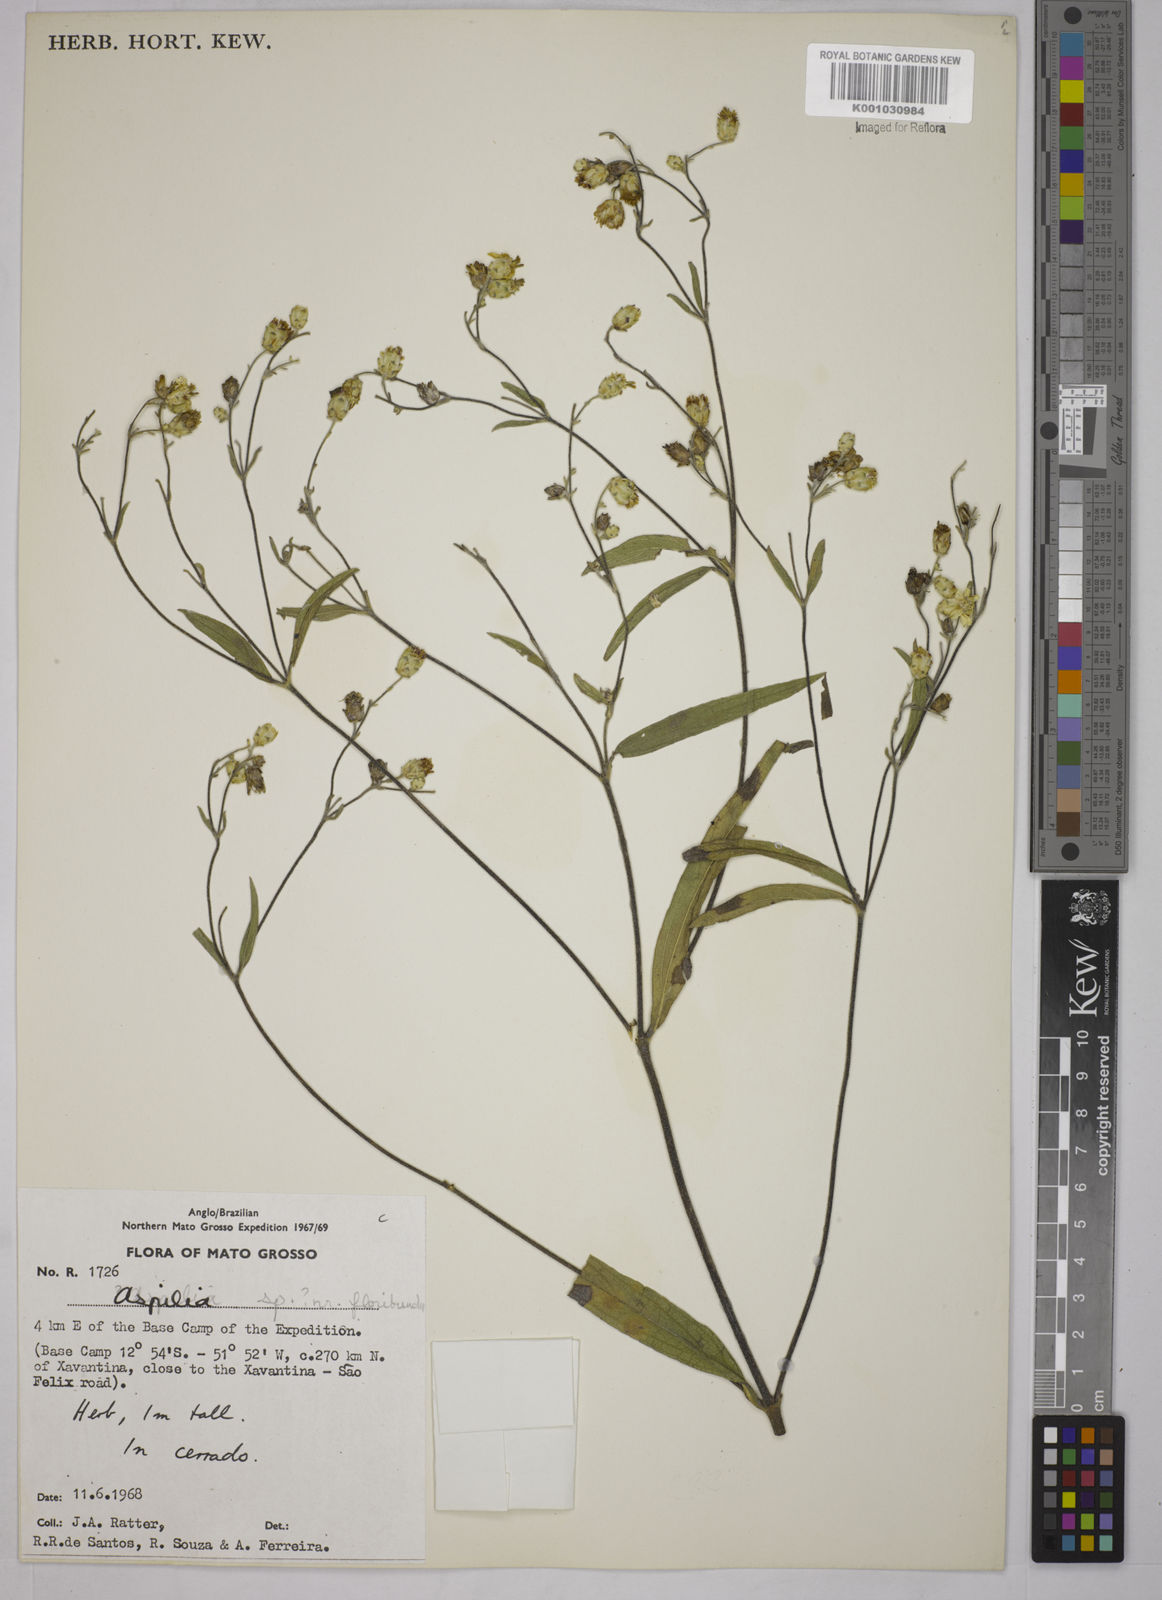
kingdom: Plantae
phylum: Tracheophyta
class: Magnoliopsida
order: Asterales
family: Asteraceae
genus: Wedelia
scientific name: Wedelia floribunda
